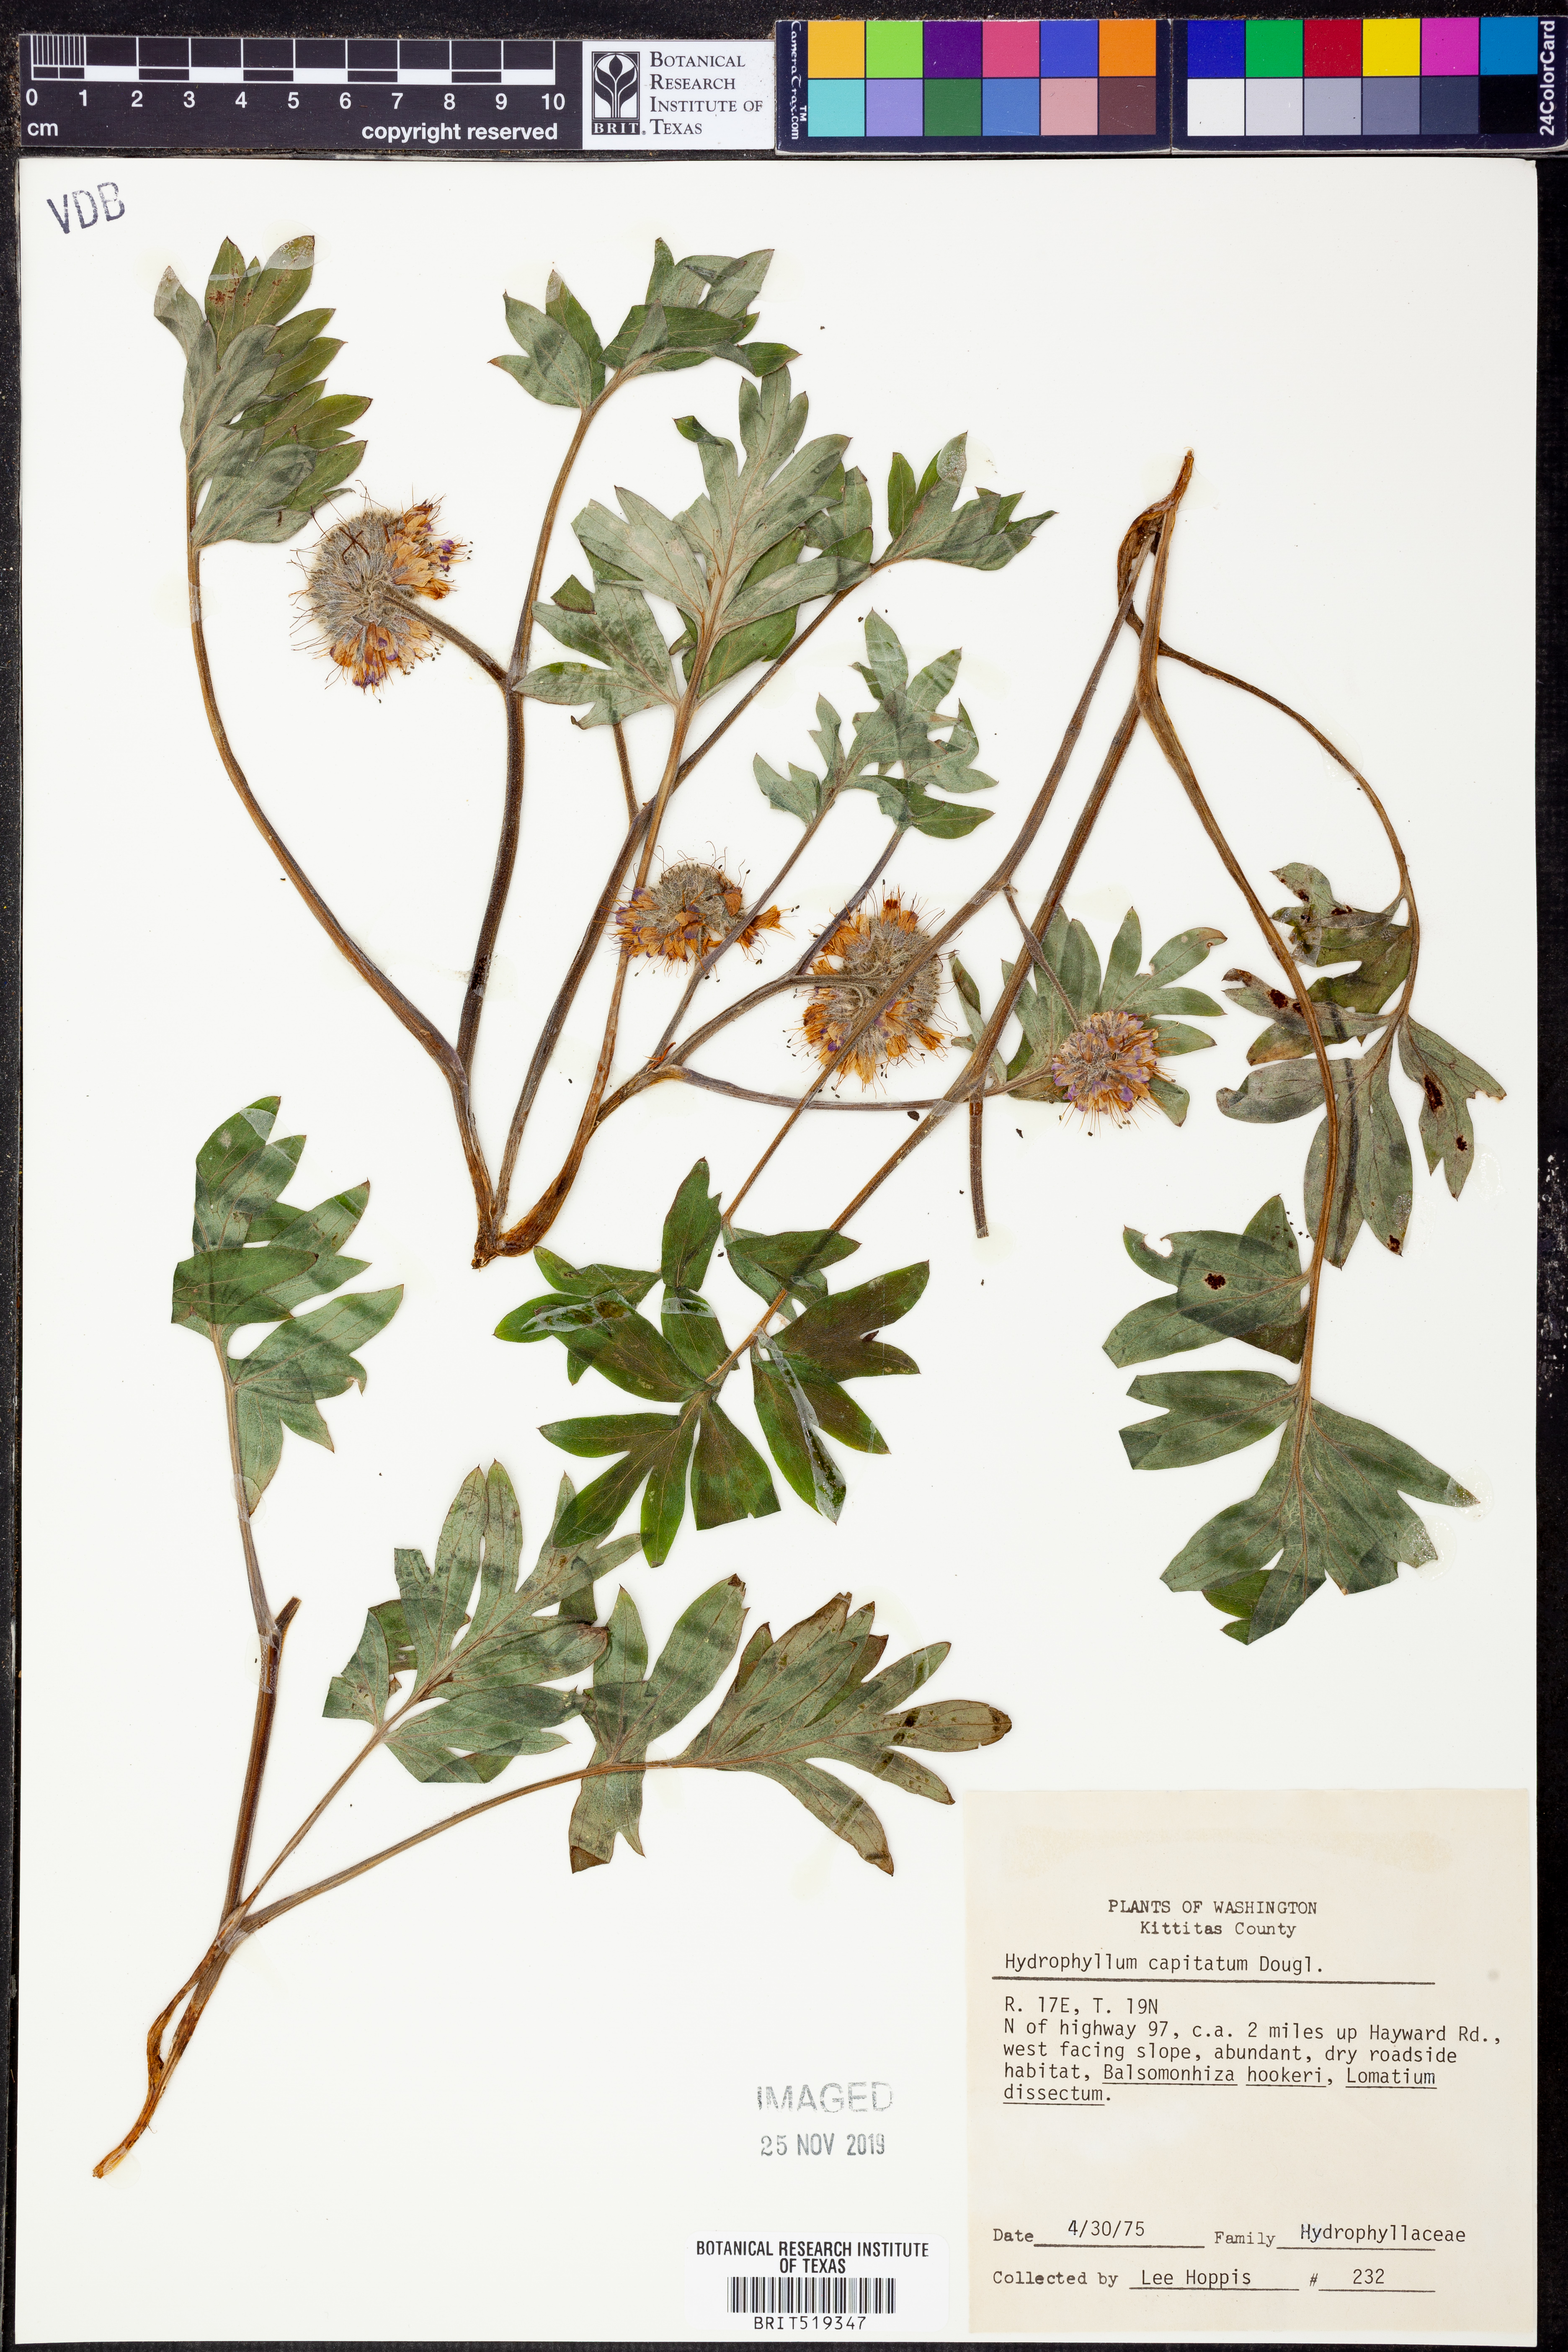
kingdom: Plantae
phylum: Tracheophyta
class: Magnoliopsida
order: Boraginales
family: Hydrophyllaceae
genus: Hydrophyllum
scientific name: Hydrophyllum capitatum
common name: Woollen-breeches
